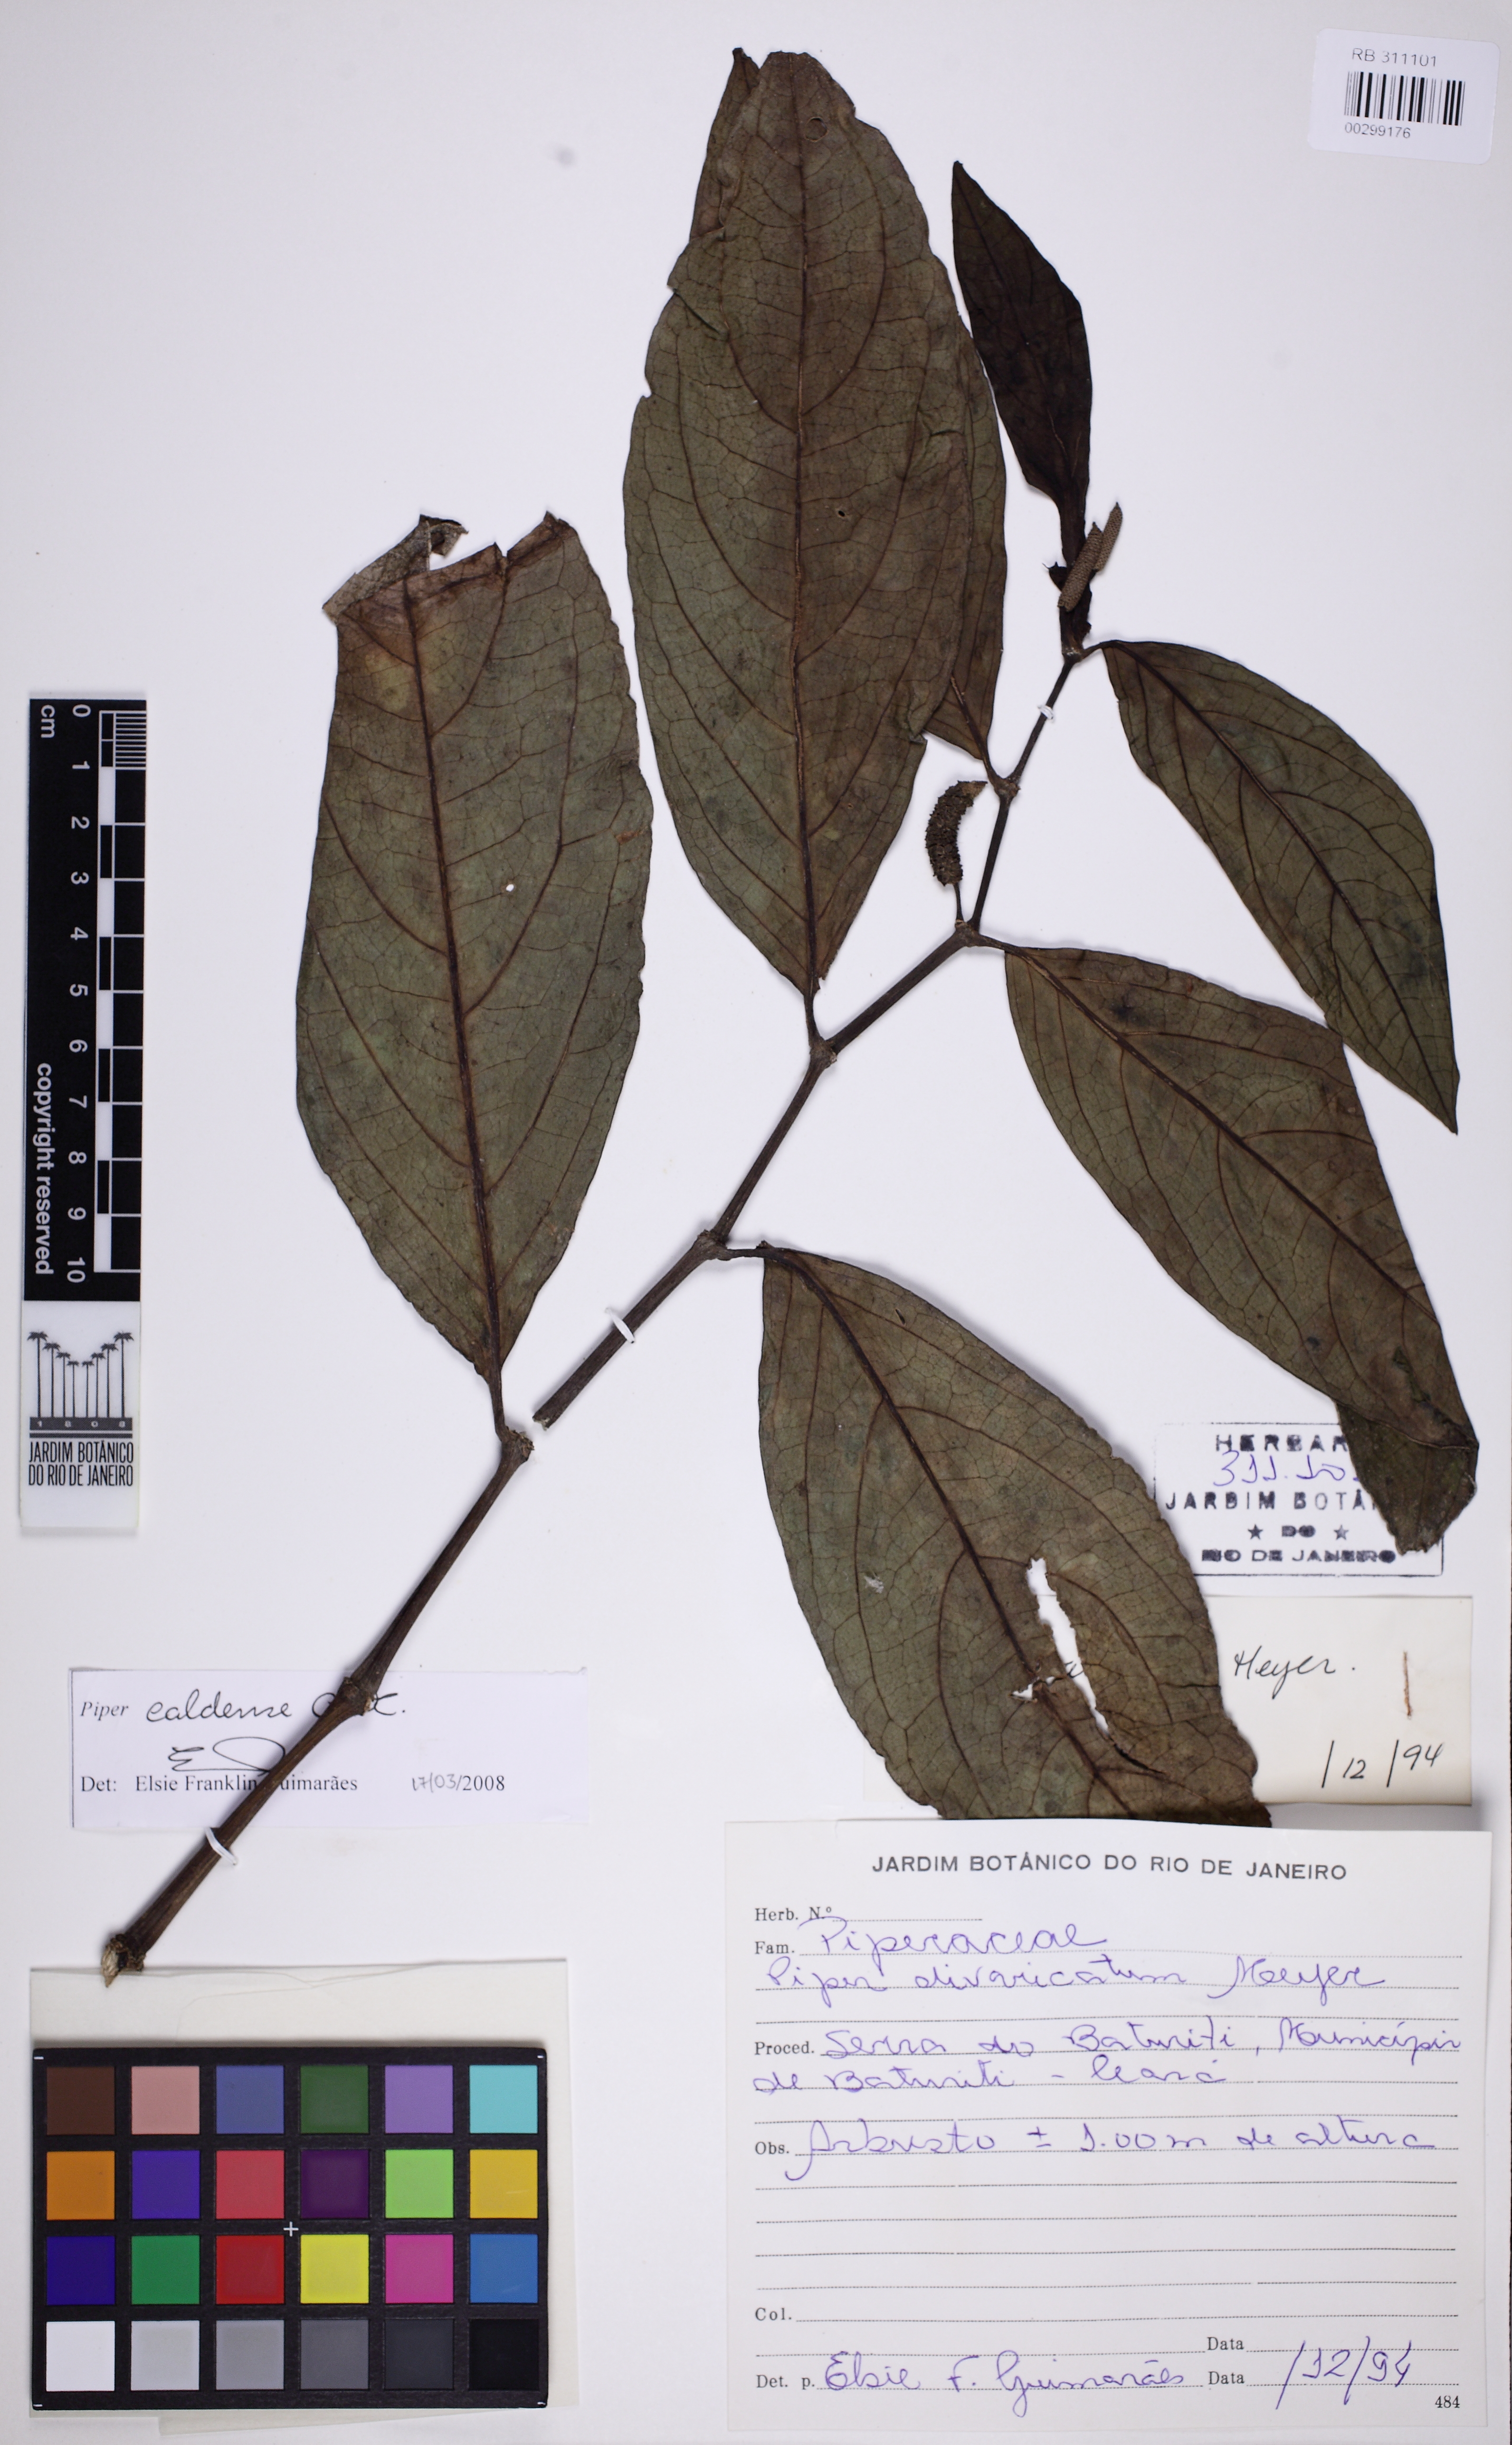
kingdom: Plantae
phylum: Tracheophyta
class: Magnoliopsida
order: Piperales
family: Piperaceae
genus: Piper
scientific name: Piper caldense
